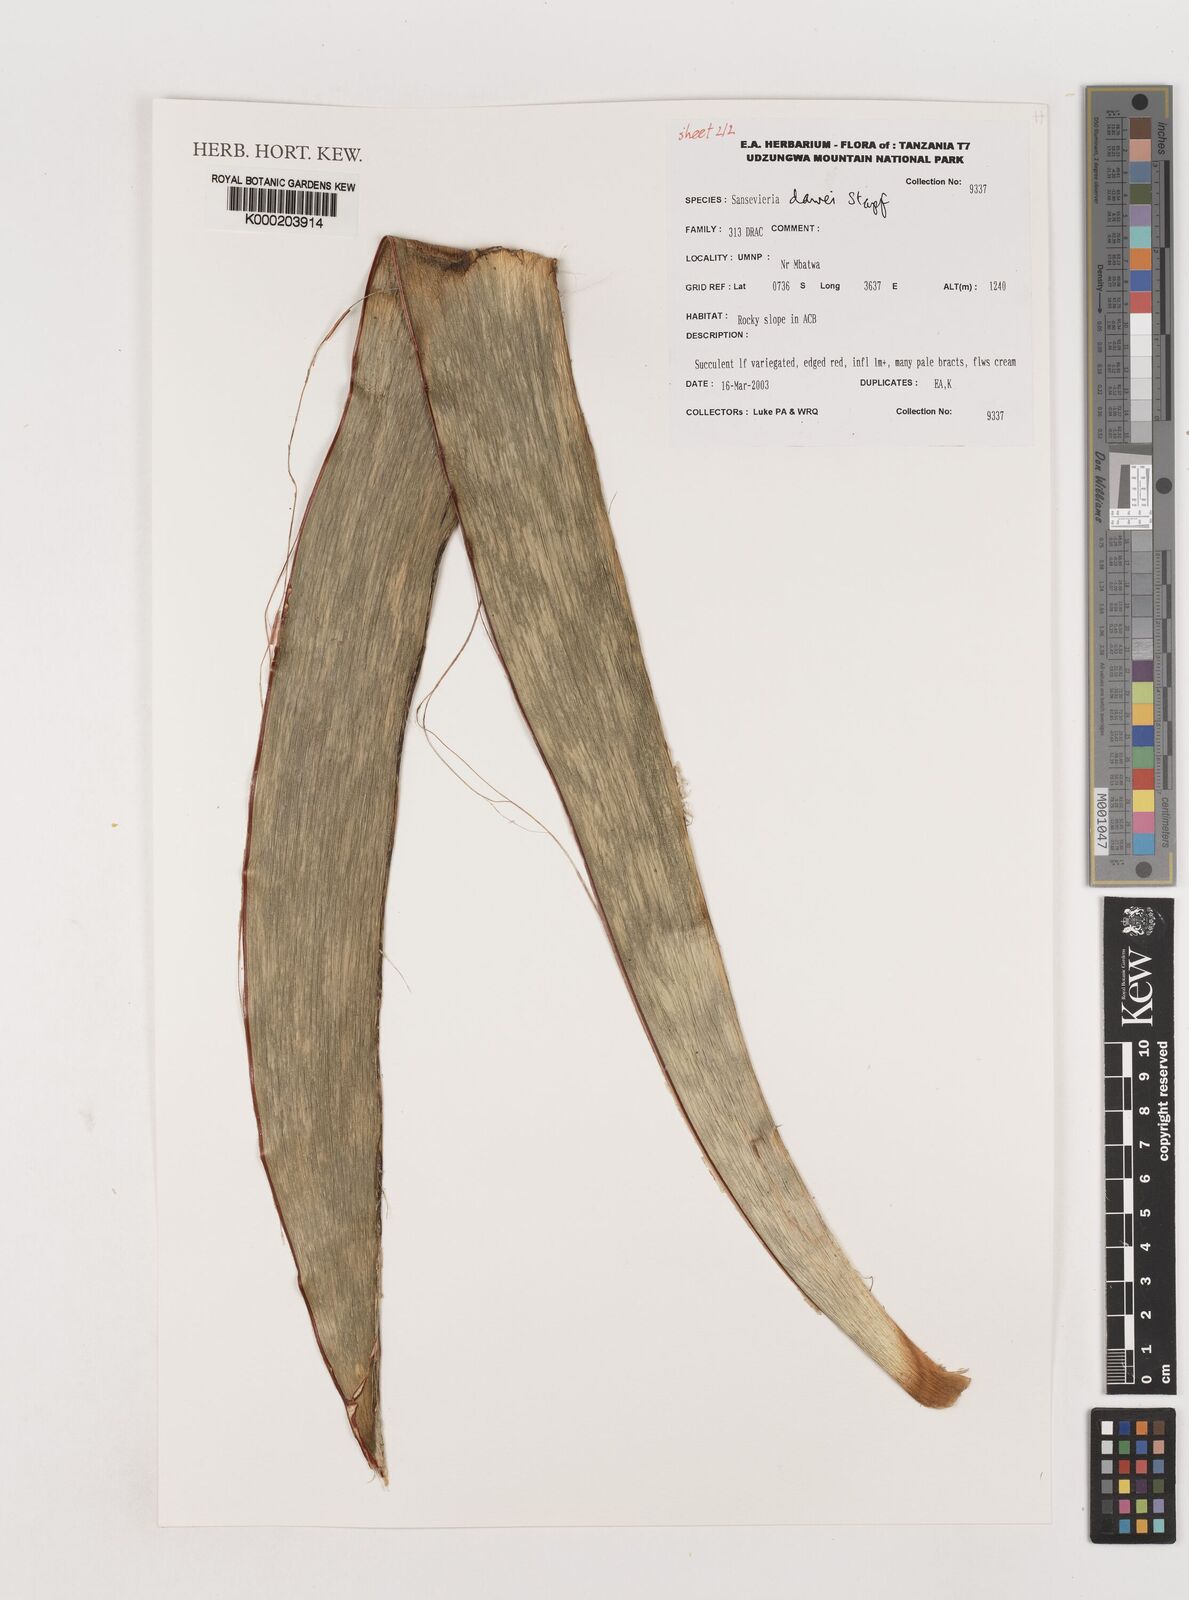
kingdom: Plantae
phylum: Tracheophyta
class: Liliopsida
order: Asparagales
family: Asparagaceae
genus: Dracaena
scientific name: Dracaena dawei
